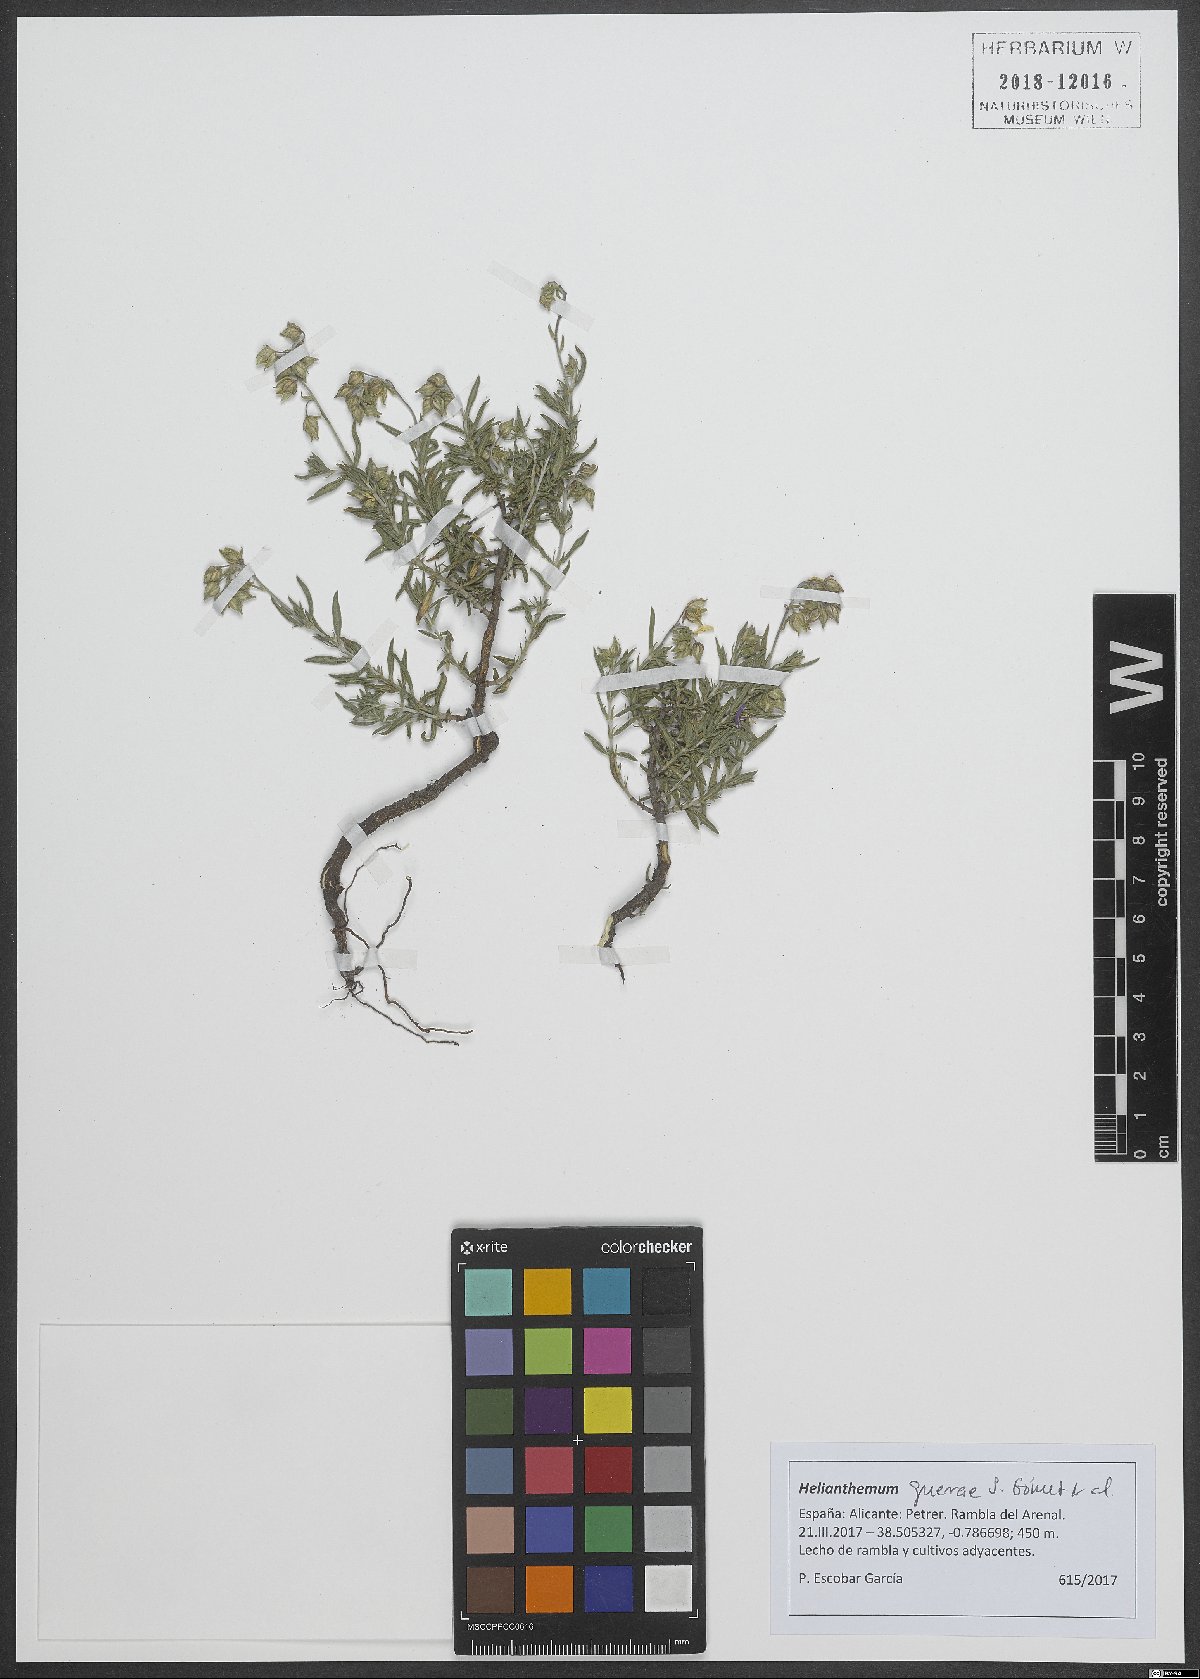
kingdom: Plantae
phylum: Tracheophyta
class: Magnoliopsida
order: Malvales
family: Cistaceae
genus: Helianthemum
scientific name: Helianthemum hirtum
